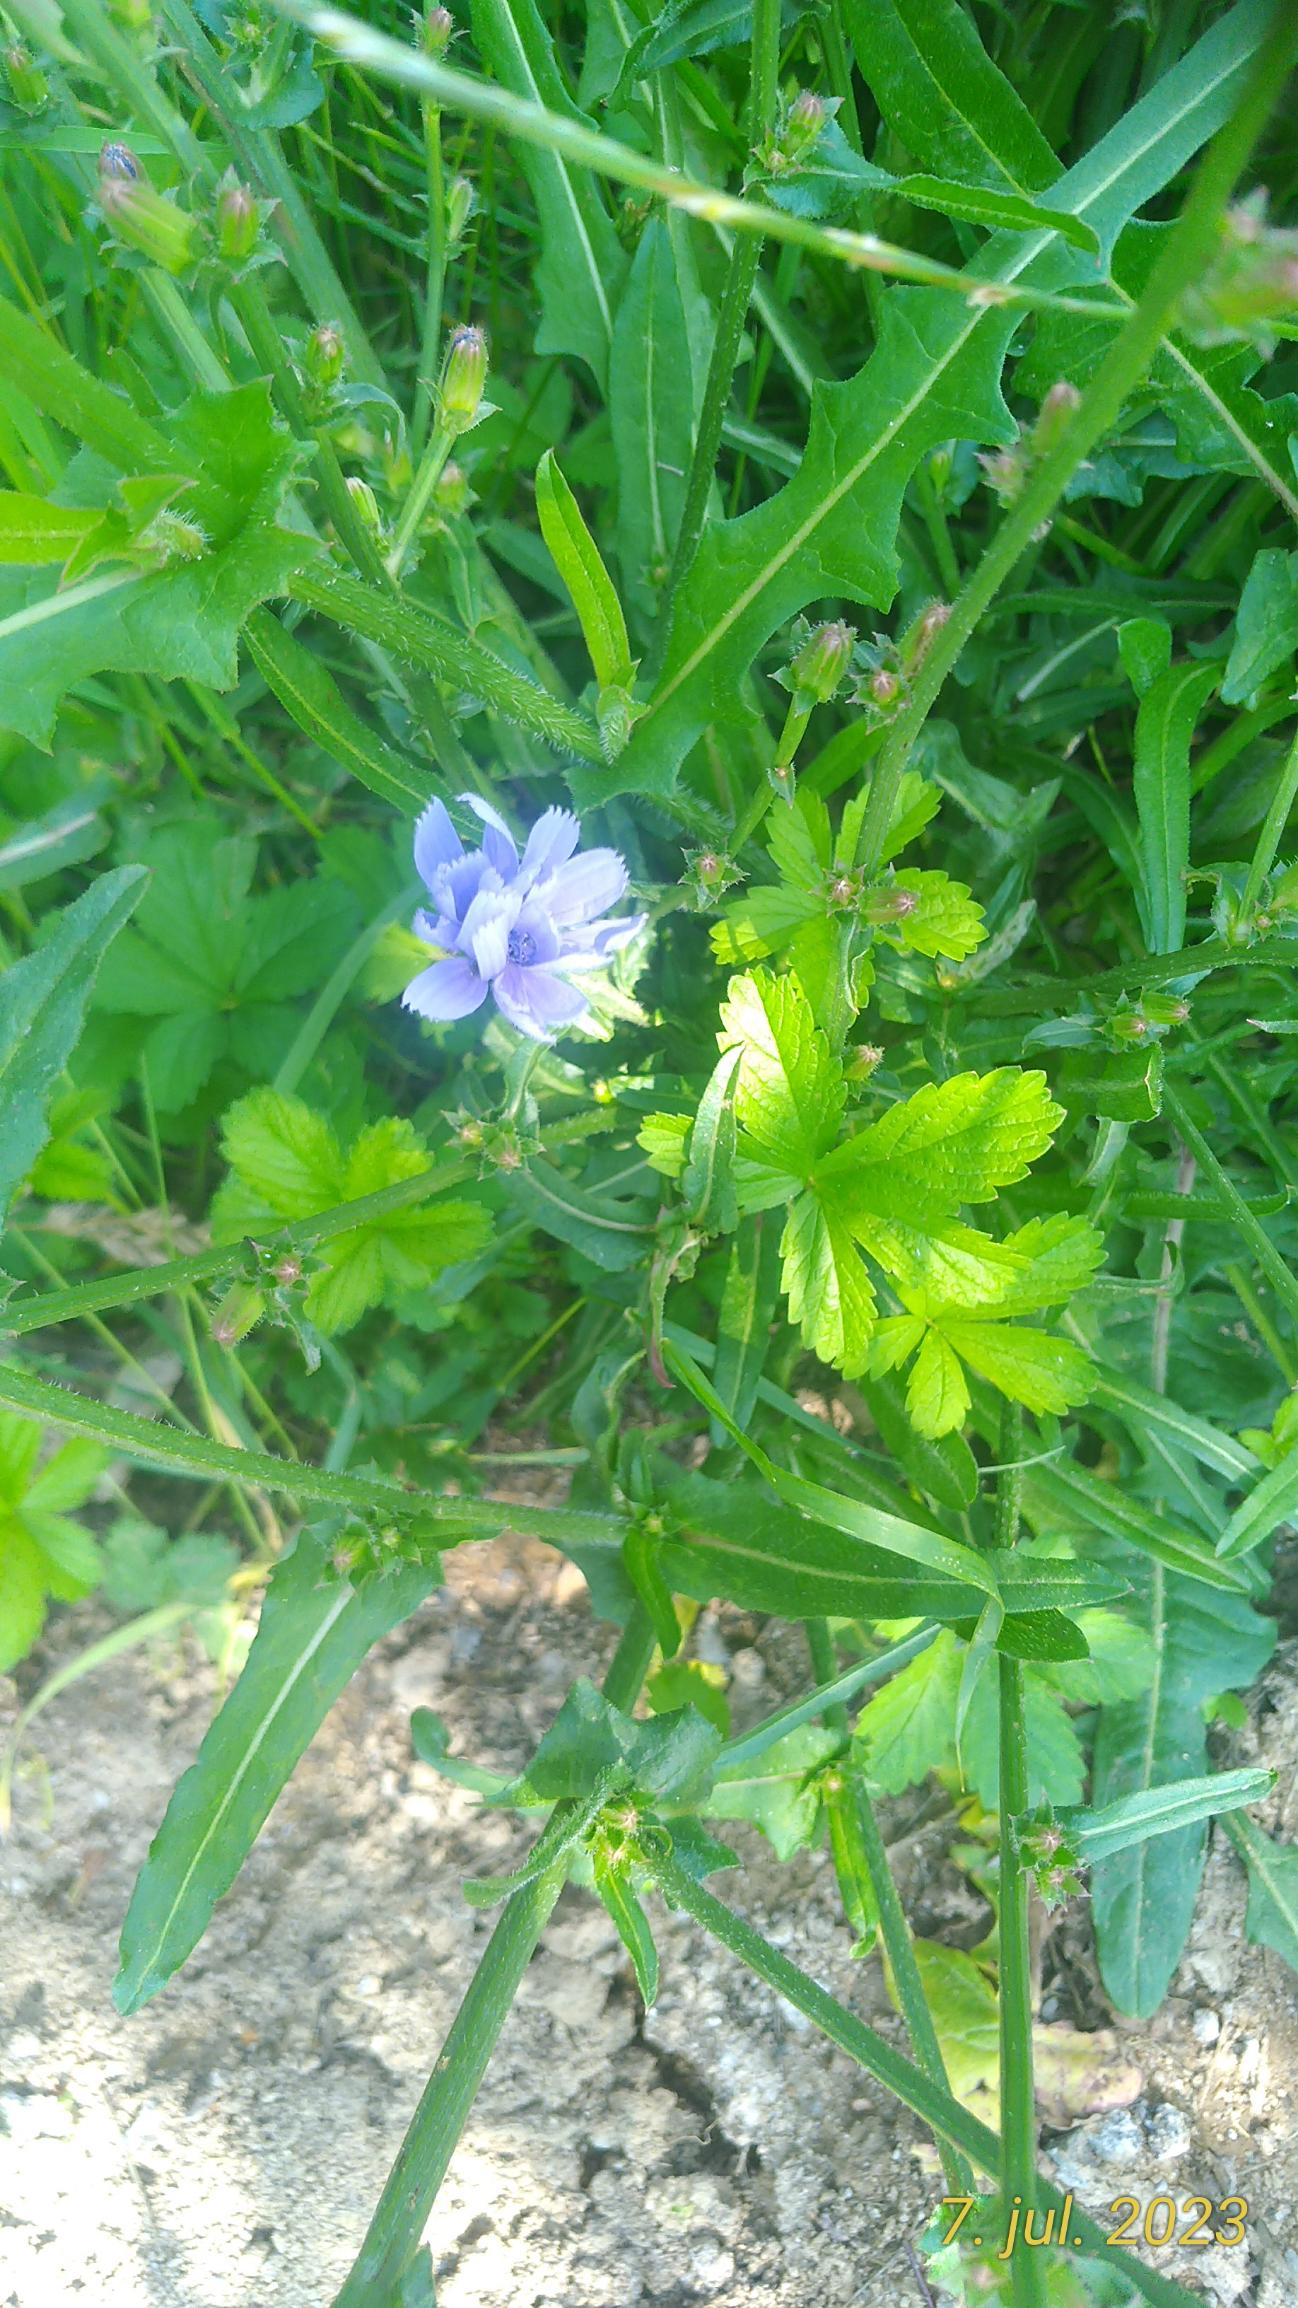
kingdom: Plantae
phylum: Tracheophyta
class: Magnoliopsida
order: Asterales
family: Asteraceae
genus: Cichorium
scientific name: Cichorium intybus
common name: Cikorie
